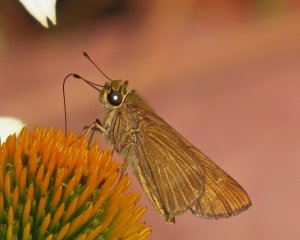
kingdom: Animalia
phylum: Arthropoda
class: Insecta
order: Lepidoptera
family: Hesperiidae
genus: Panoquina
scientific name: Panoquina ocola
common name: Ocola Skipper
